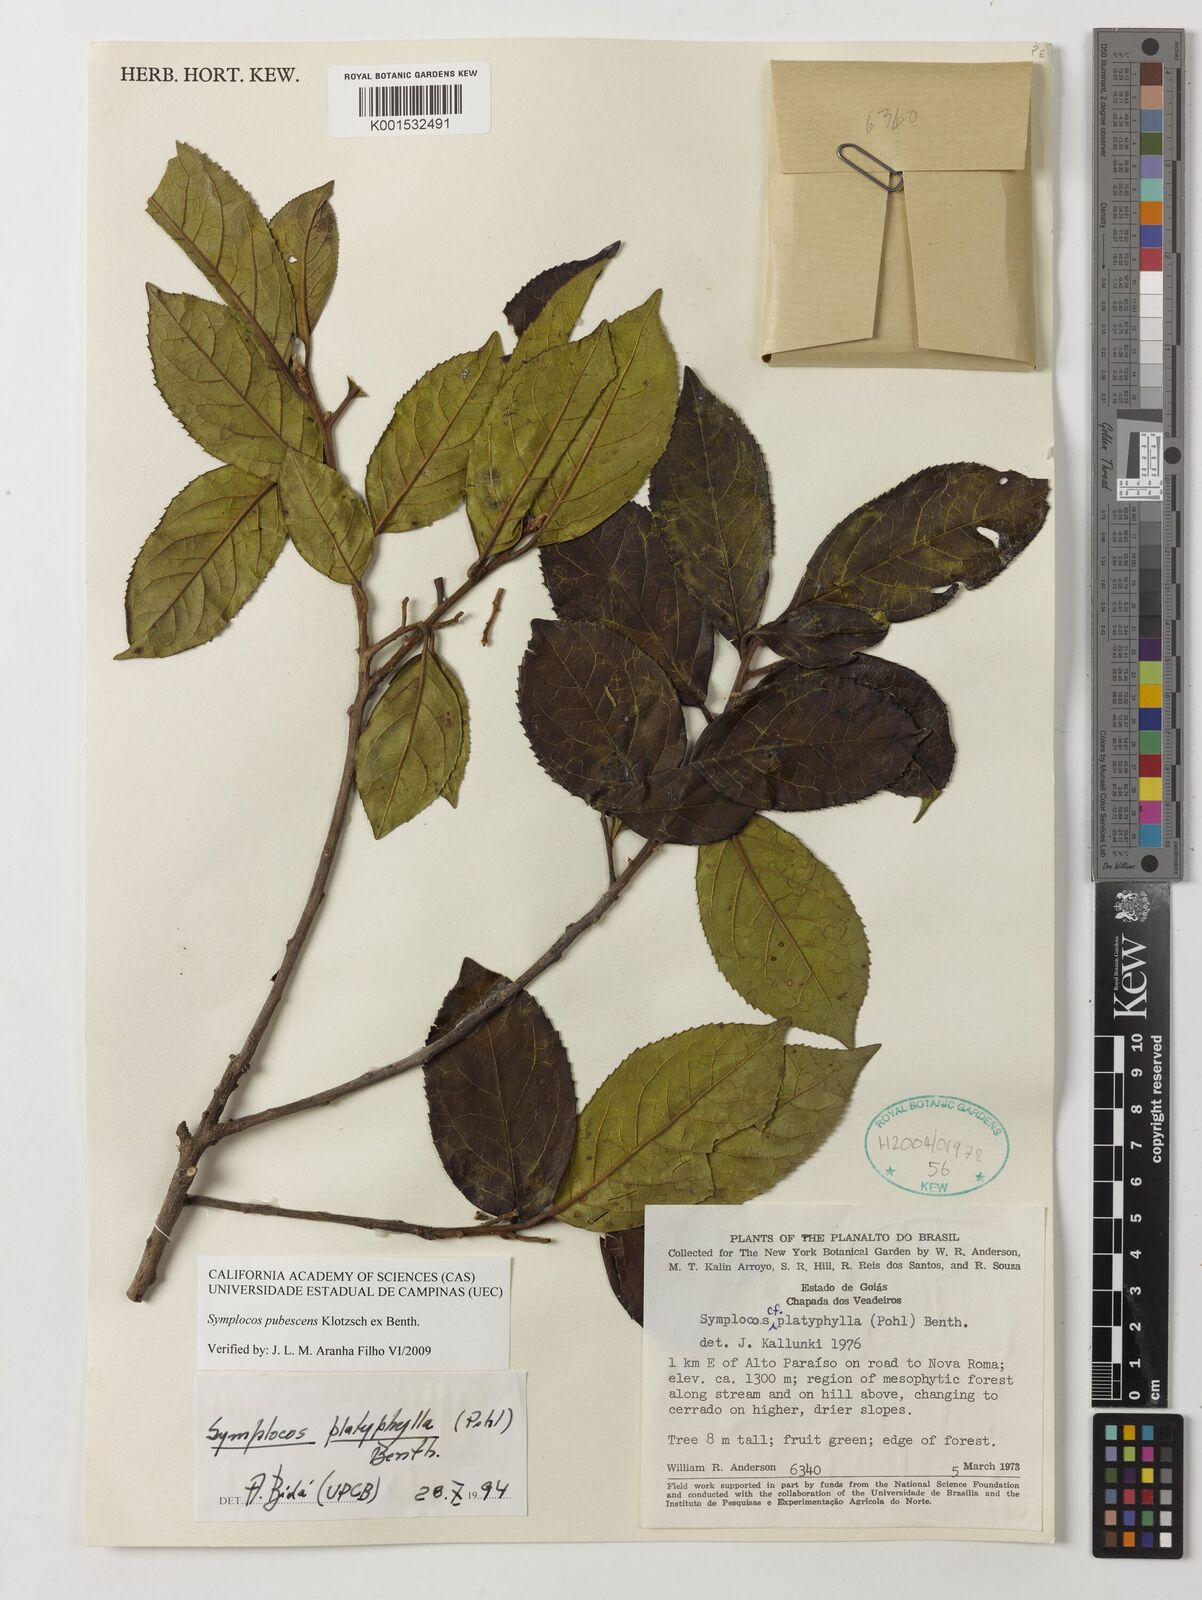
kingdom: Plantae
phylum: Tracheophyta
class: Magnoliopsida
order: Ericales
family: Symplocaceae
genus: Symplocos
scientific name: Symplocos pubescens
